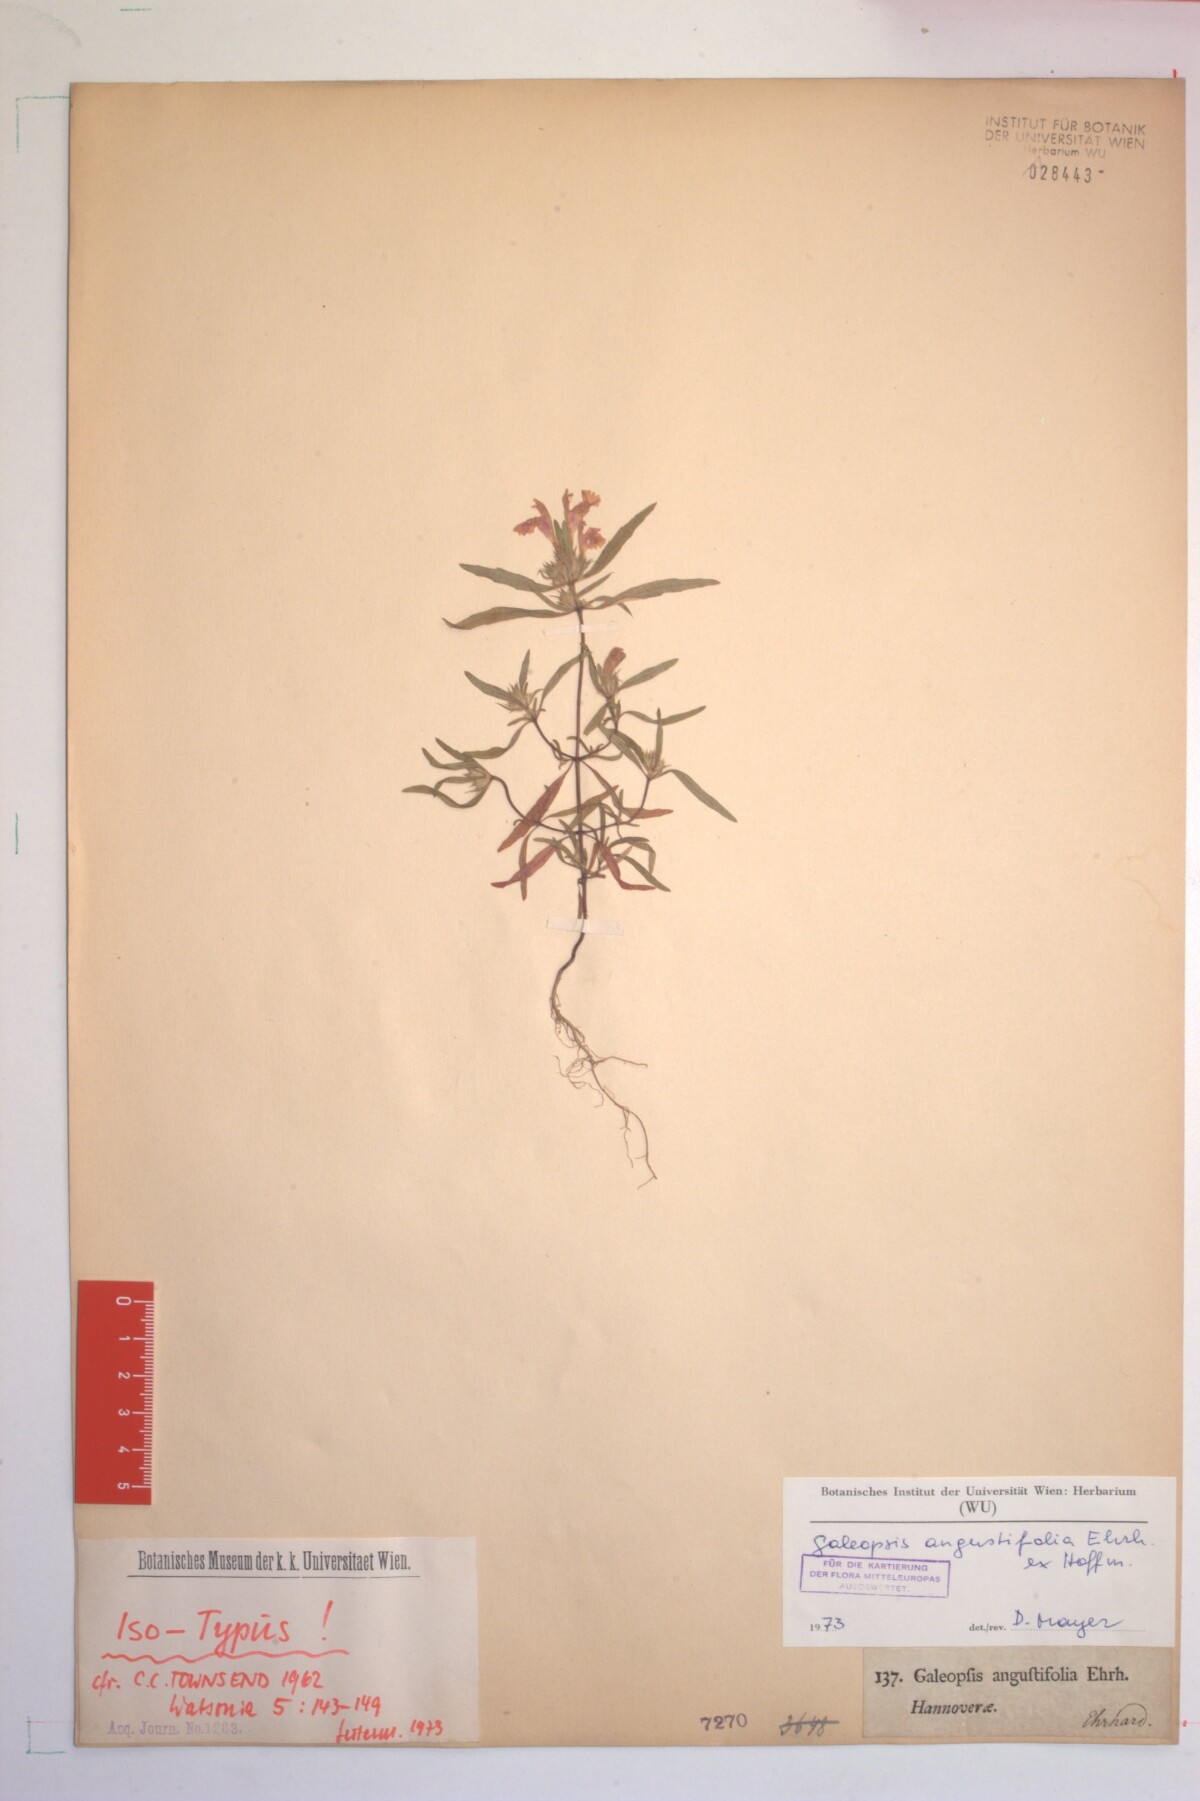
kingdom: Plantae
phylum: Tracheophyta
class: Magnoliopsida
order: Lamiales
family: Lamiaceae
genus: Galeopsis
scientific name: Galeopsis angustifolia
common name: Red hemp-nettle
